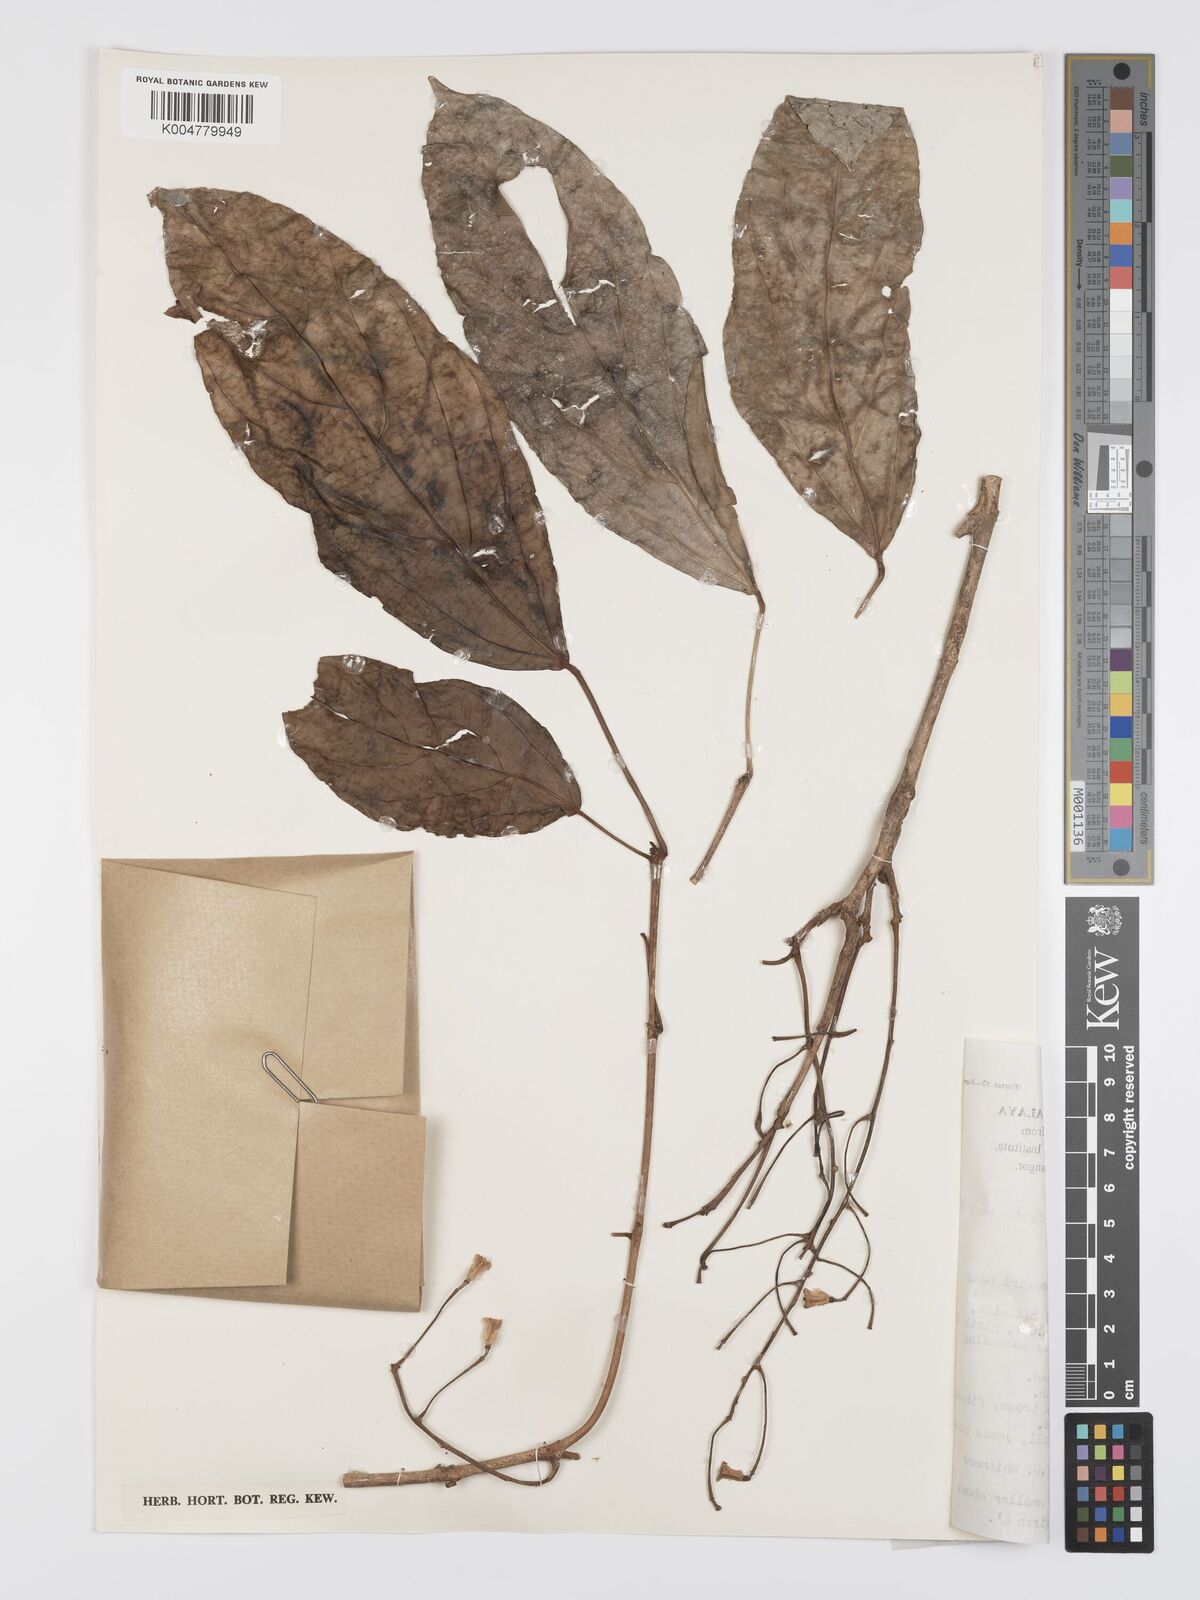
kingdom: Plantae
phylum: Tracheophyta
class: Magnoliopsida
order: Malpighiales
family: Euphorbiaceae
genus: Mallotus
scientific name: Mallotus leucodermis
